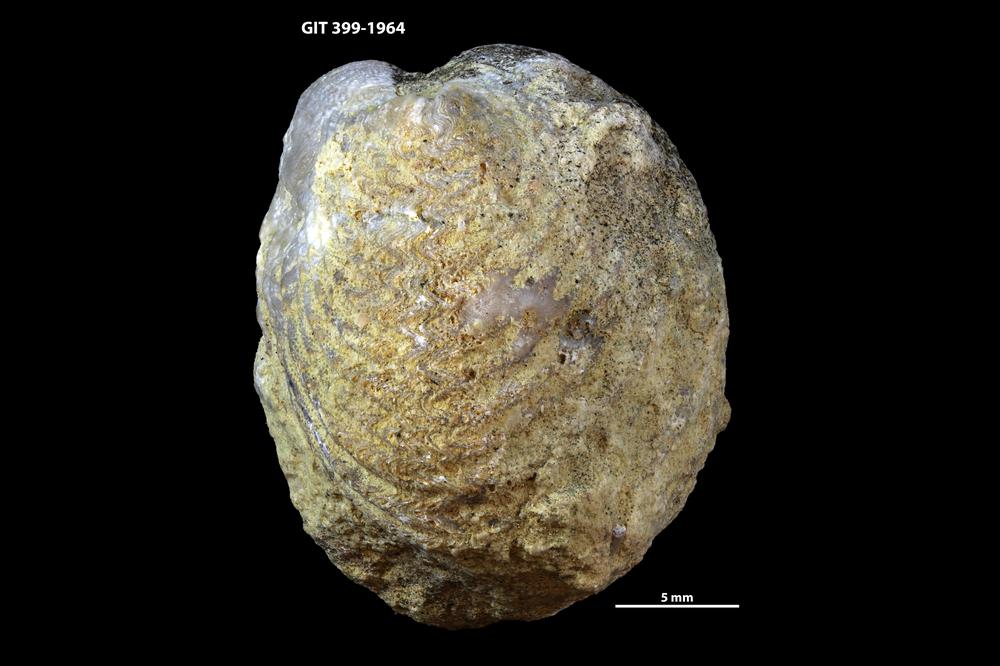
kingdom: Animalia
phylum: Brachiopoda
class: Rhynchonellata
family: Plectorthidae
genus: Platystrophia
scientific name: Platystrophia
